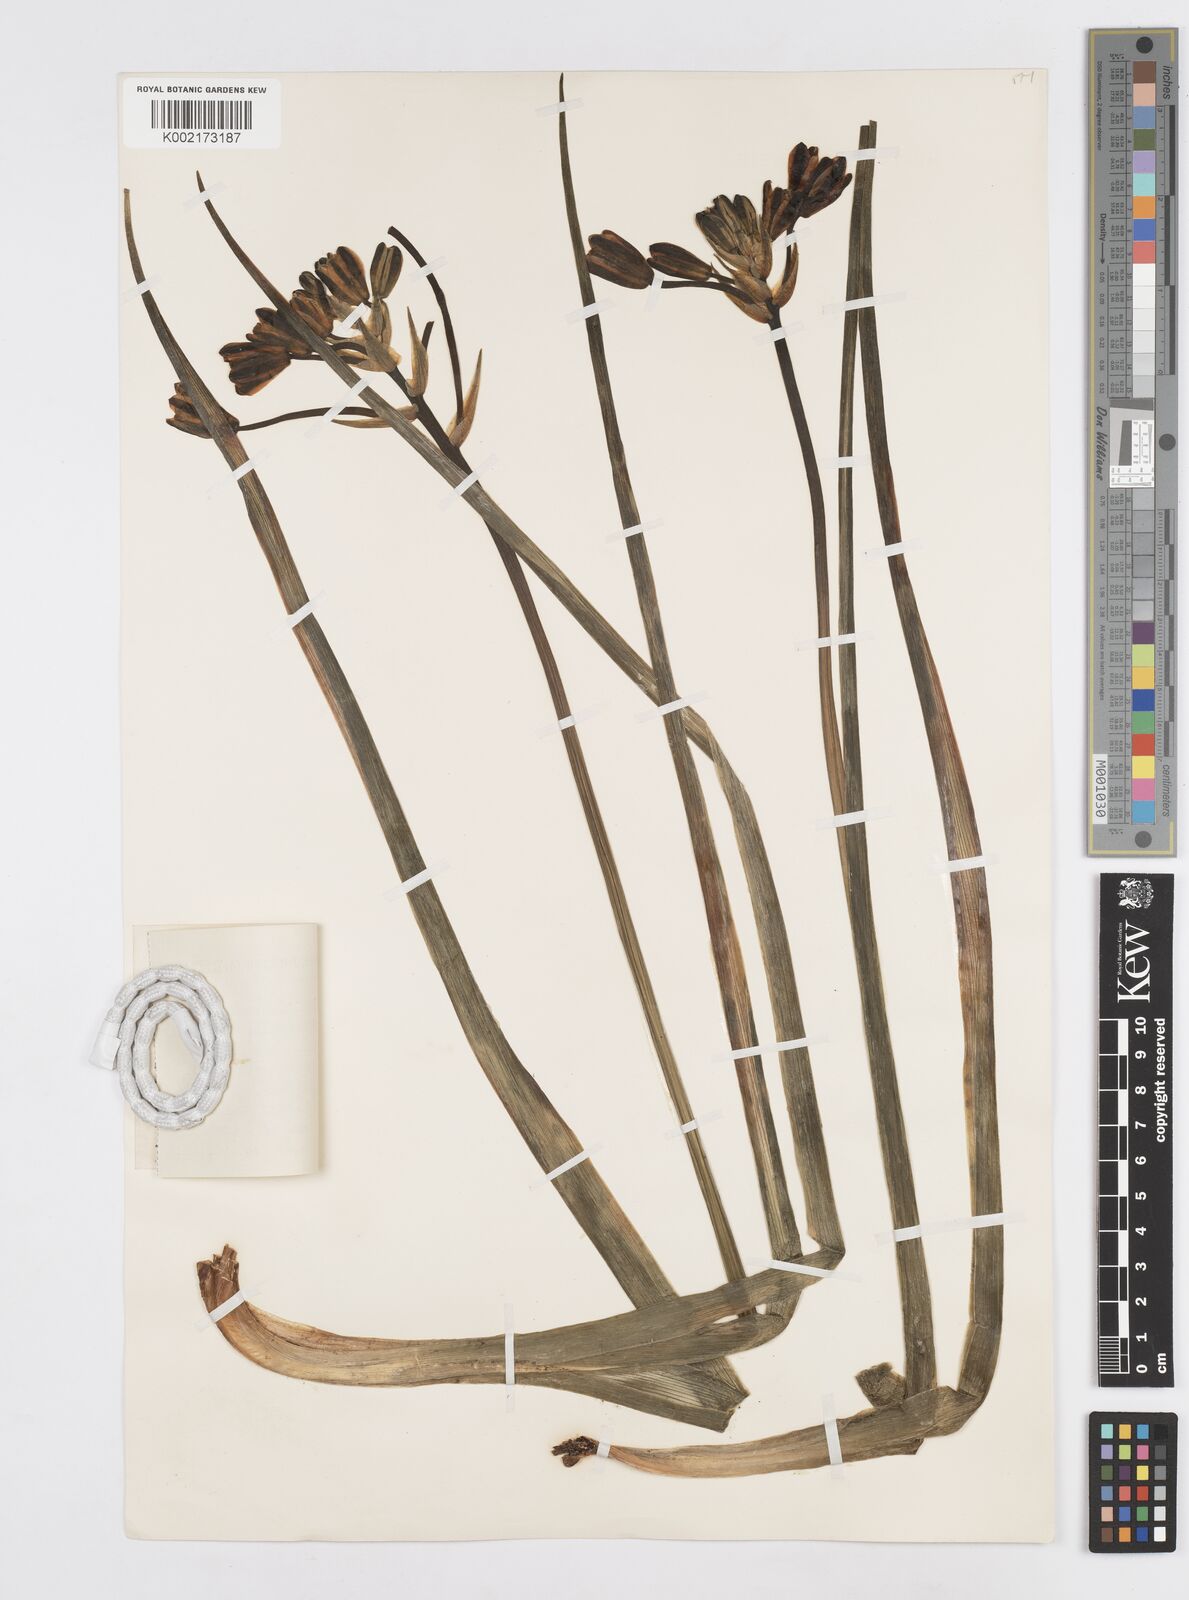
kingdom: Plantae
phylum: Tracheophyta
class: Liliopsida
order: Asparagales
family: Asparagaceae
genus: Albuca
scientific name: Albuca
